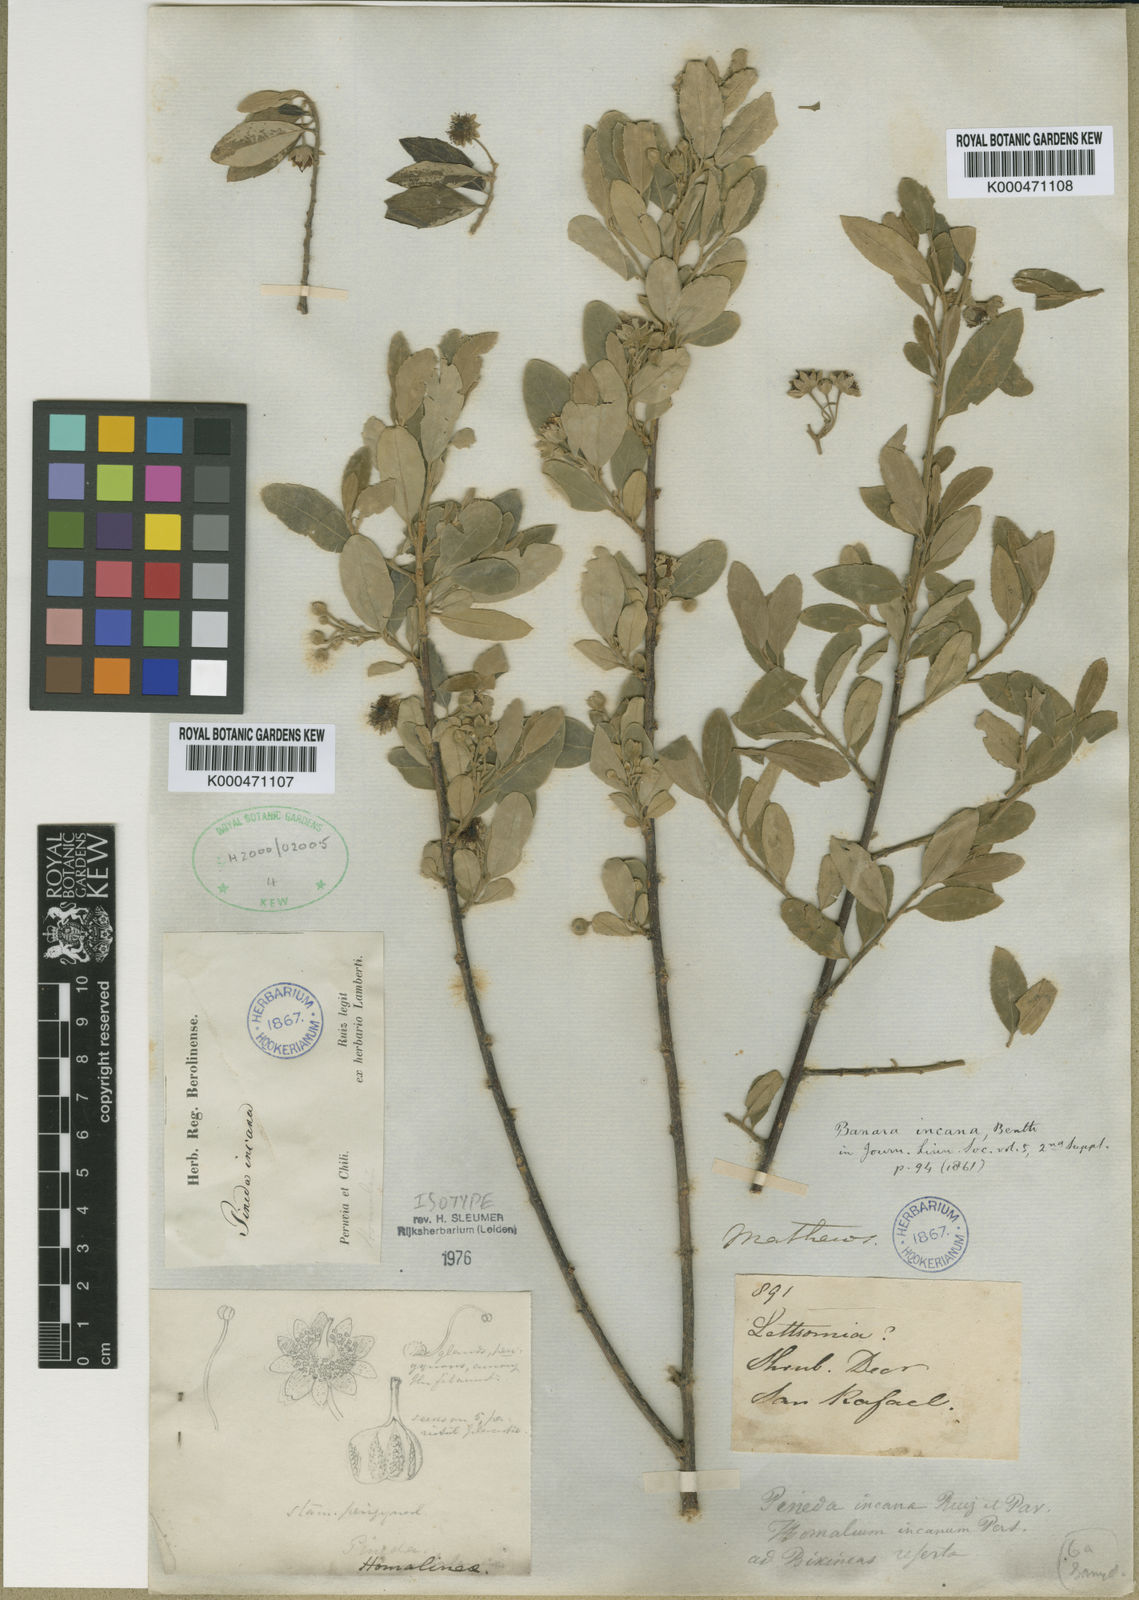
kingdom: Plantae
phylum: Tracheophyta
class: Magnoliopsida
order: Malpighiales
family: Salicaceae
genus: Pineda
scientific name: Pineda incana
